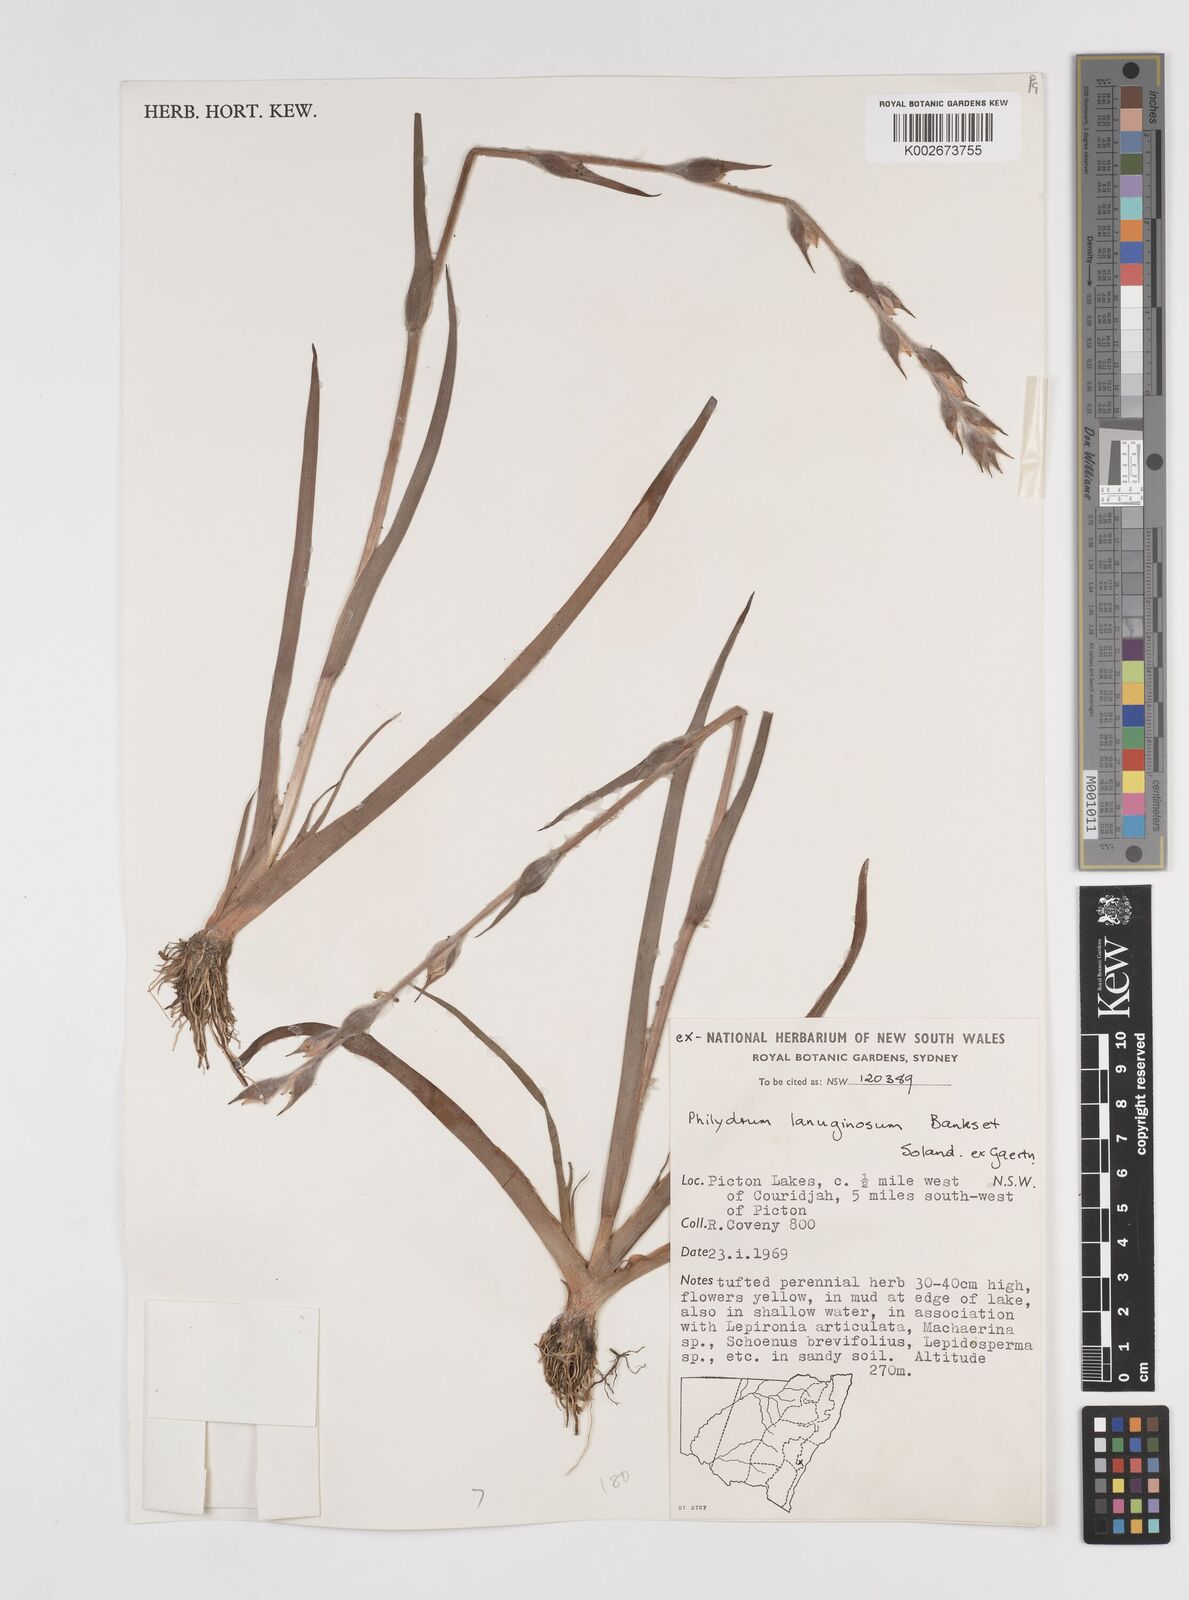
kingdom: Plantae
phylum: Tracheophyta
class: Liliopsida
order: Commelinales
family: Philydraceae
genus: Philydrum
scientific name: Philydrum lanuginosum
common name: Woolly frog's mouth
